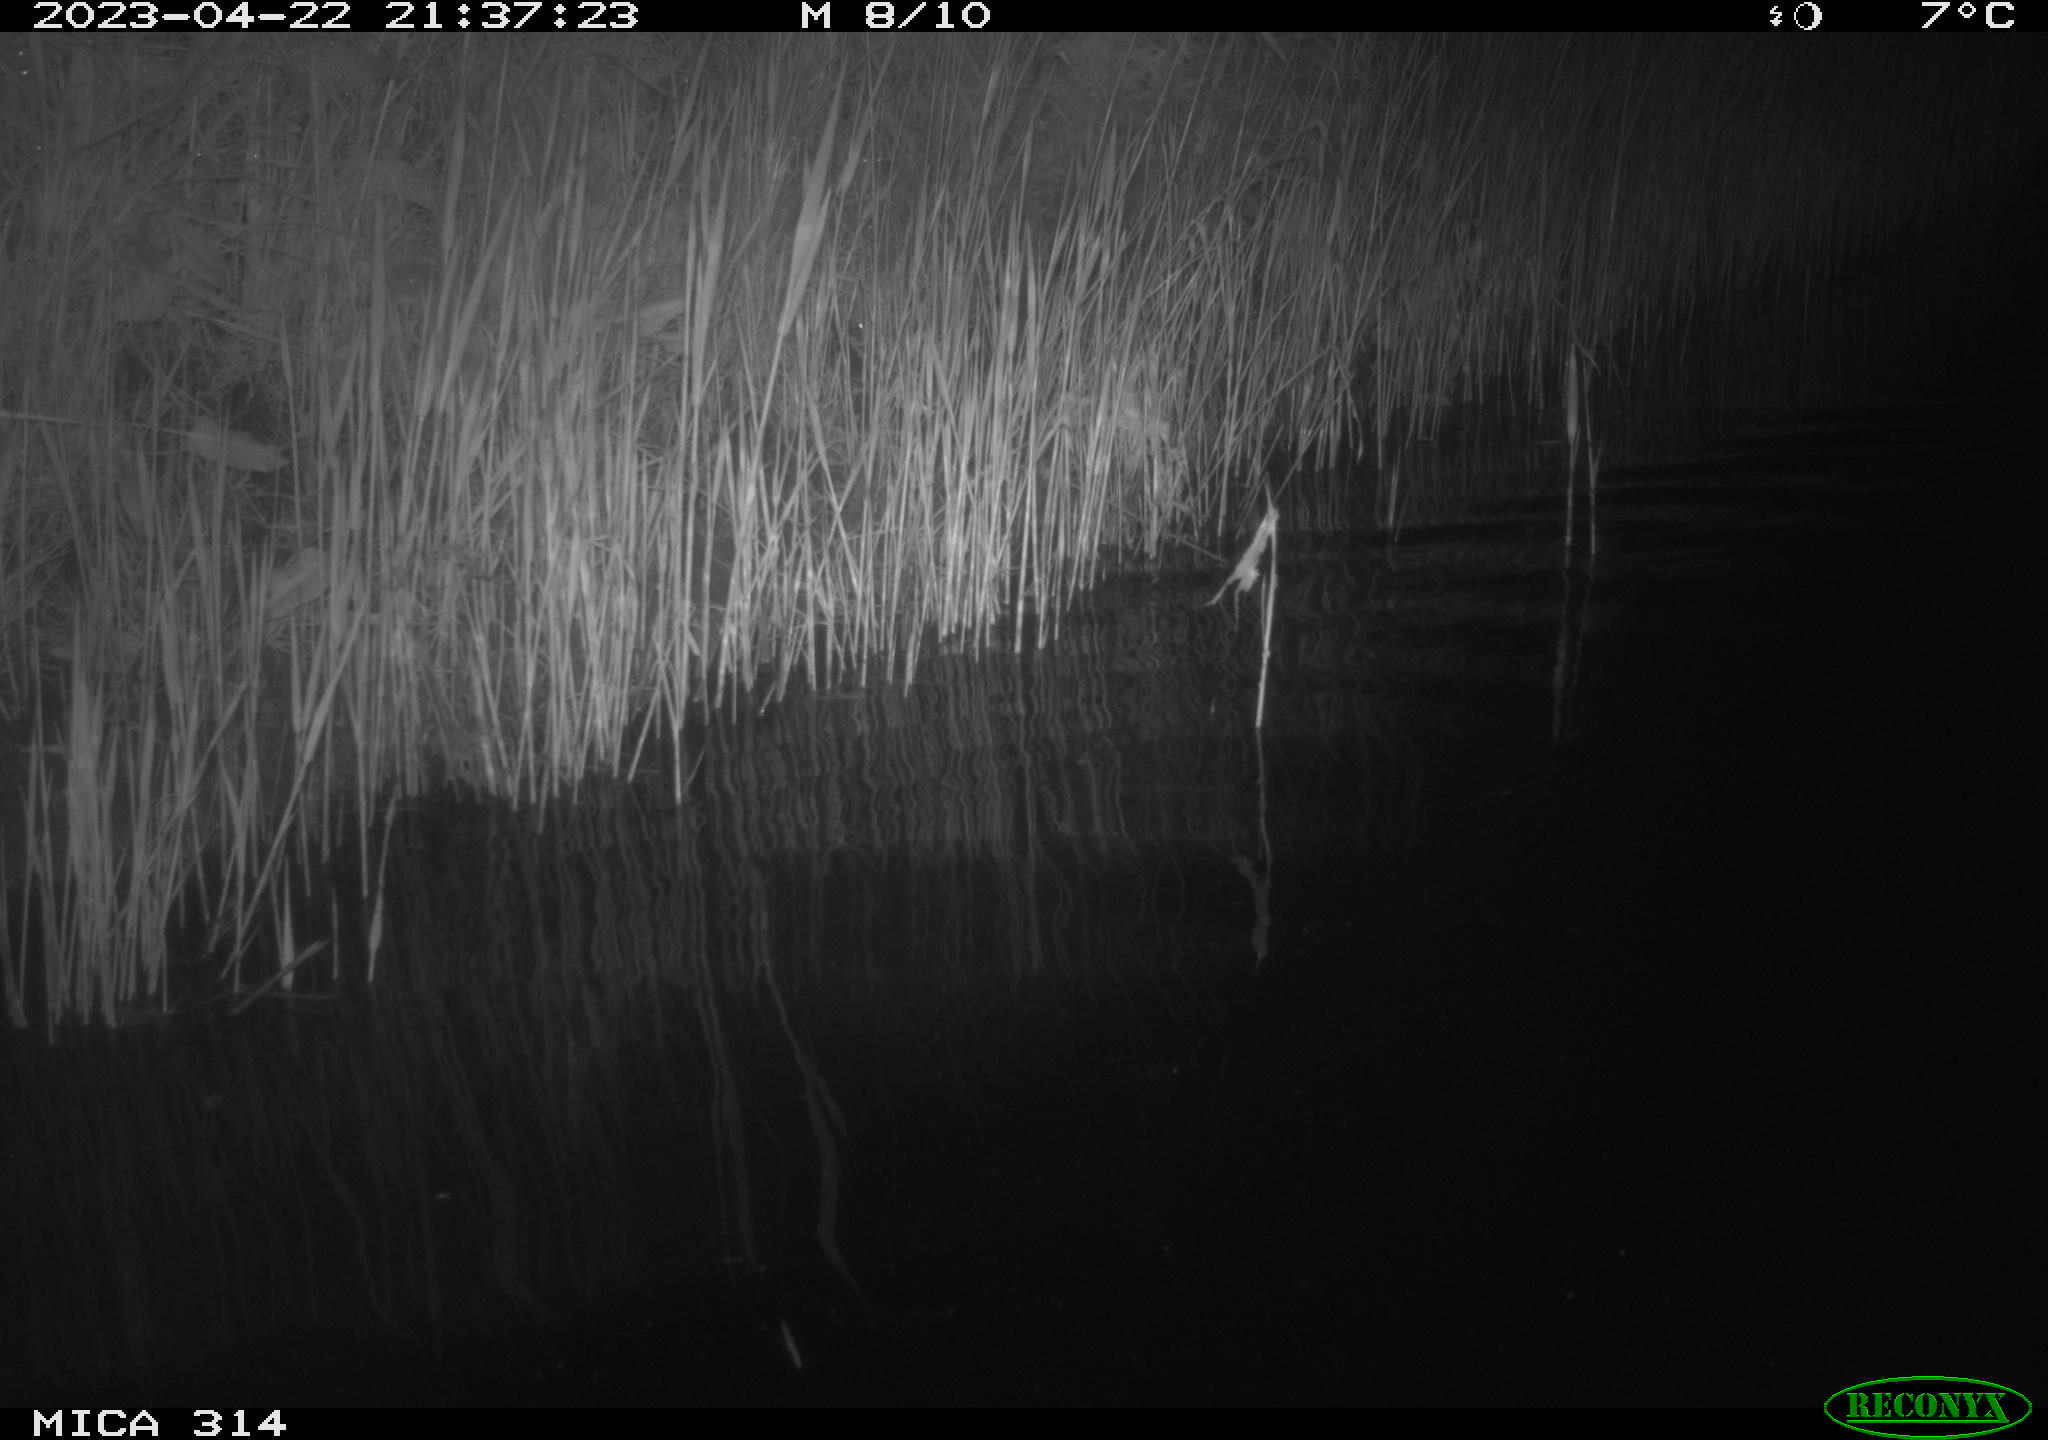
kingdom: Animalia
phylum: Chordata
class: Aves
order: Anseriformes
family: Anatidae
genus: Anas
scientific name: Anas
